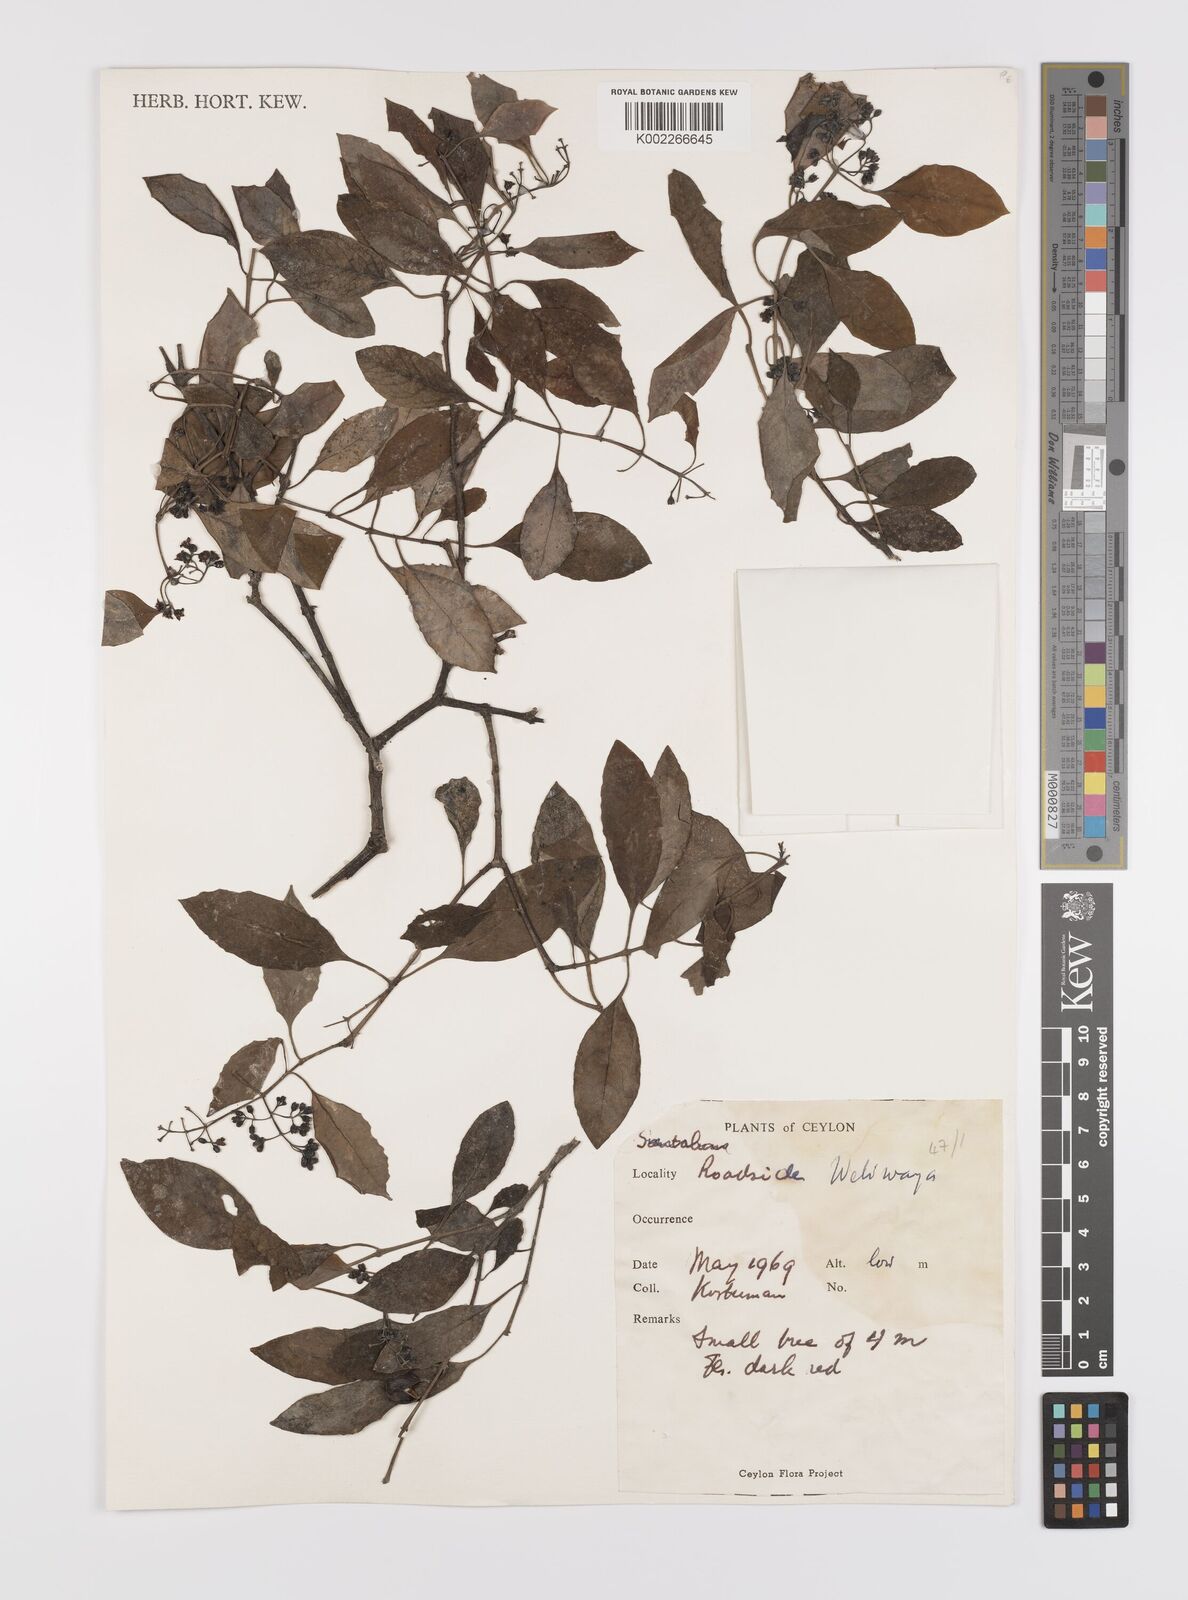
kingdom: Plantae
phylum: Tracheophyta
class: Magnoliopsida
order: Celastrales
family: Celastraceae
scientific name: Celastraceae
